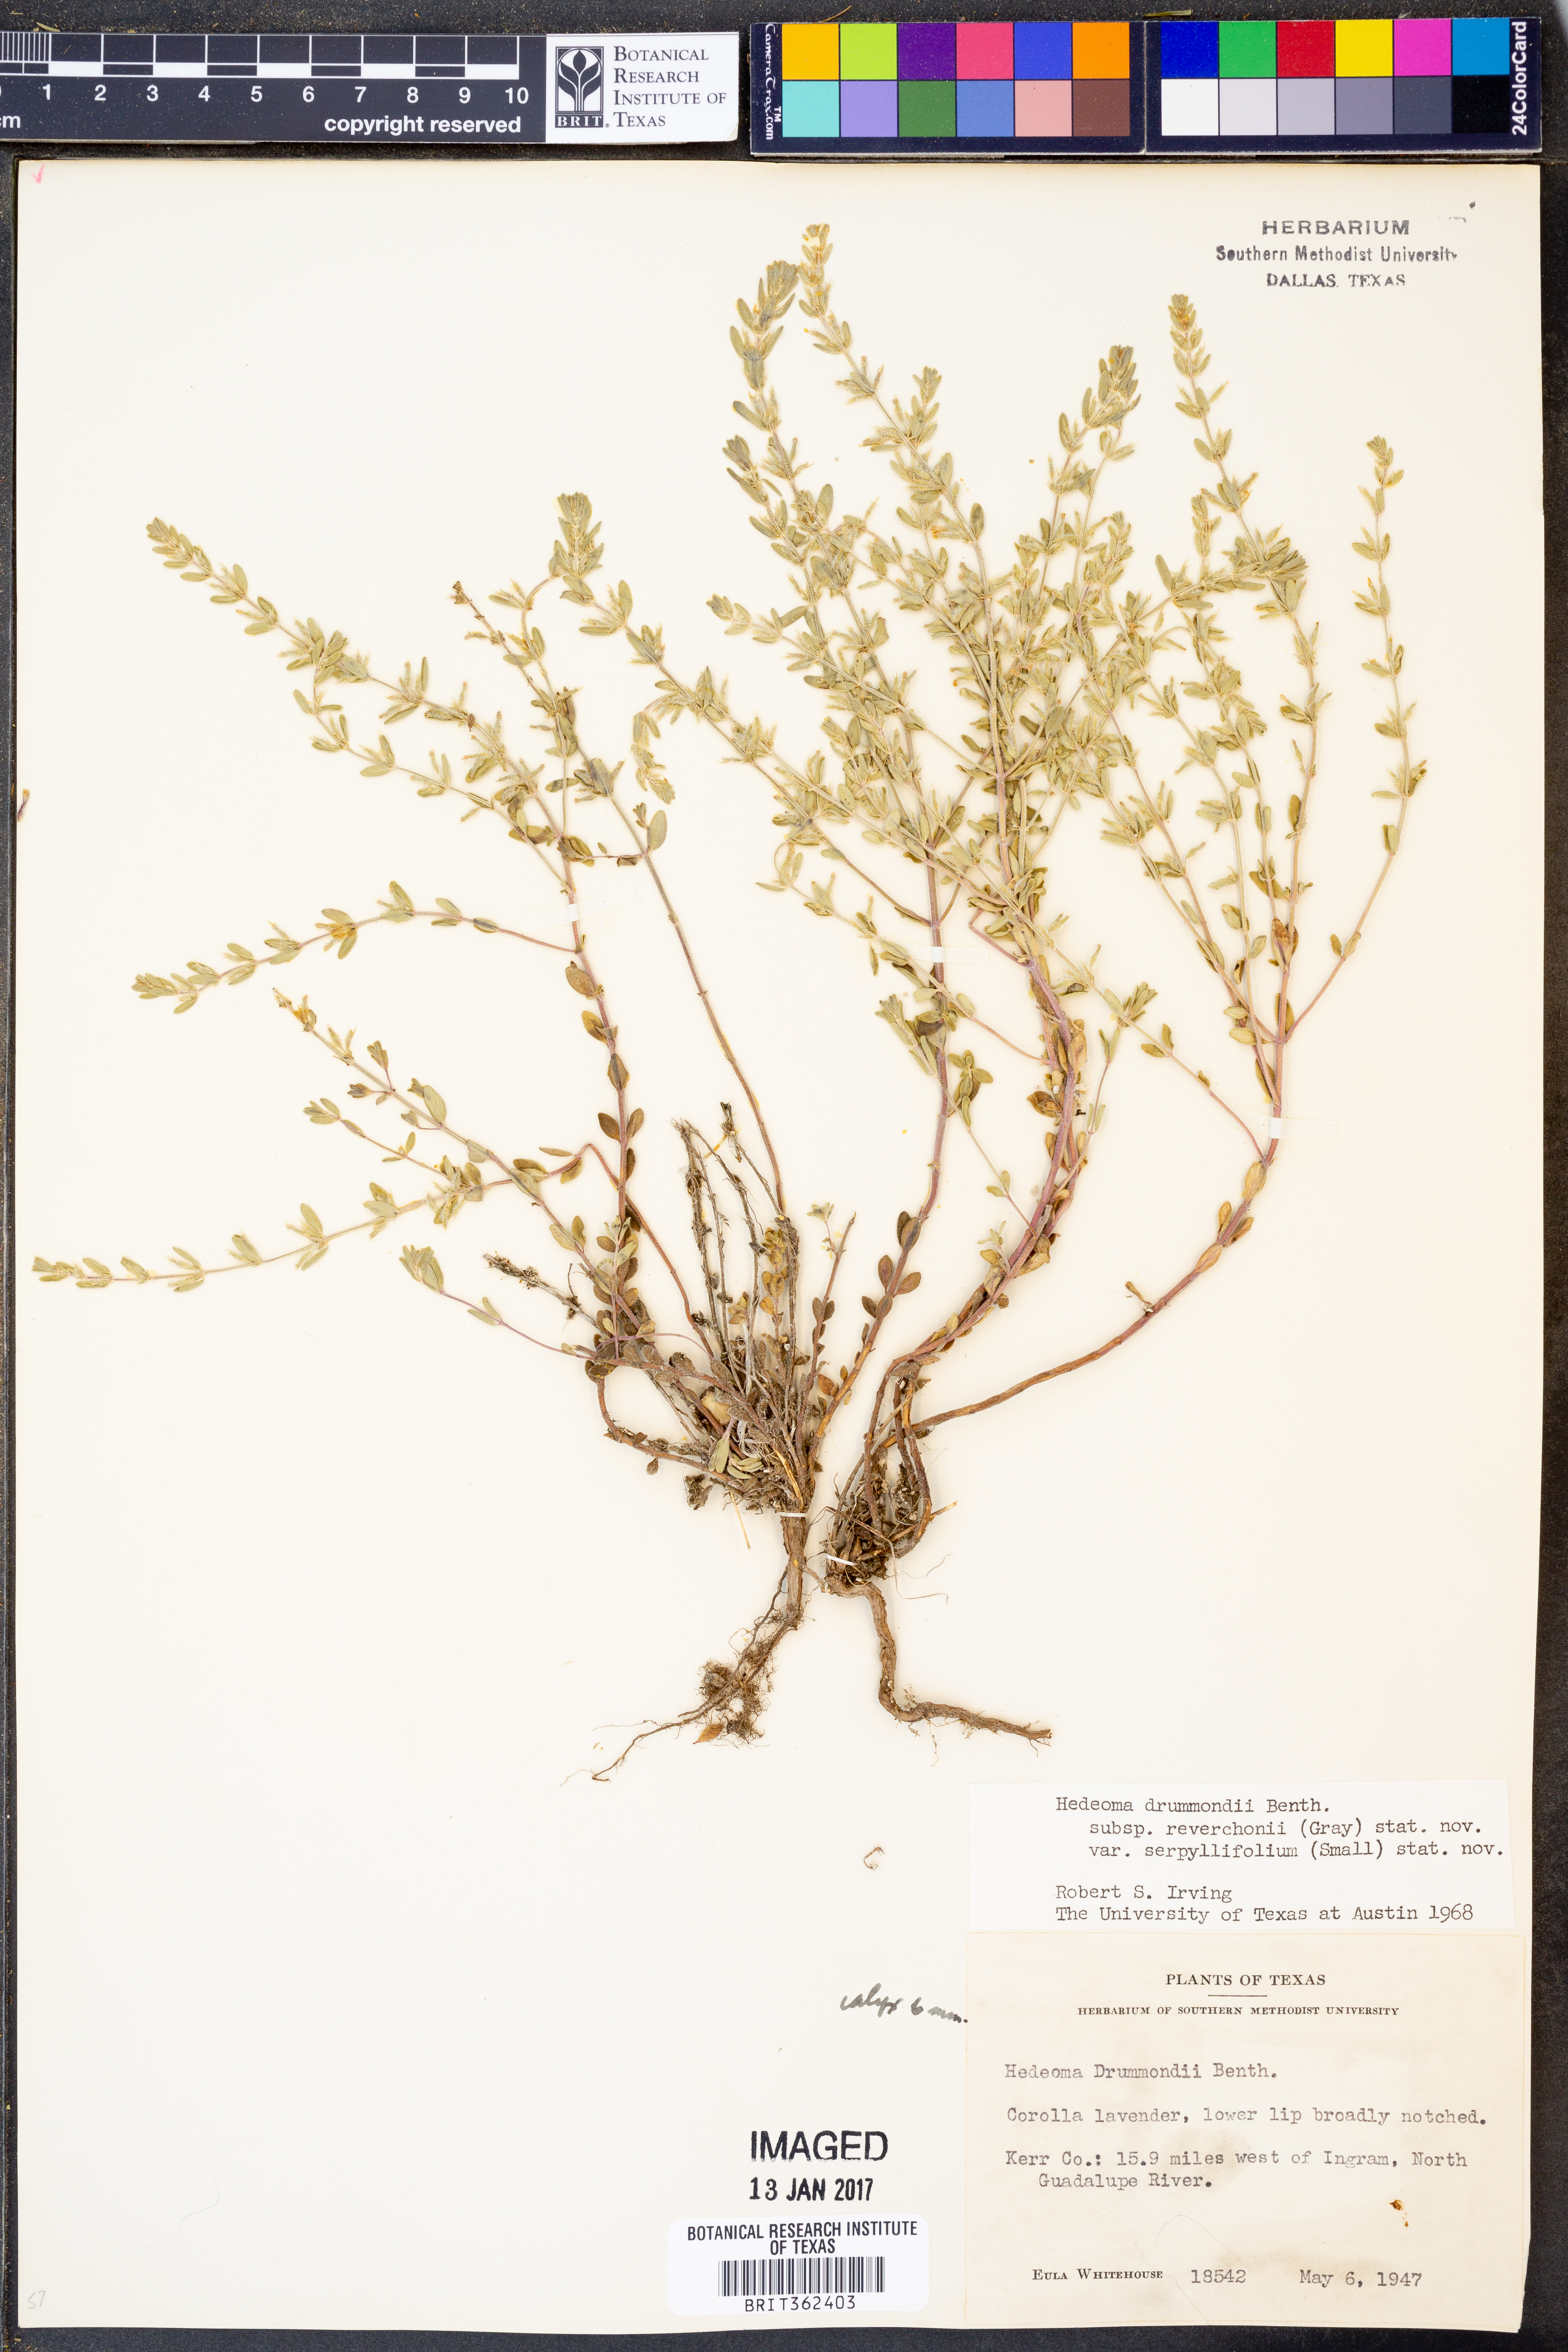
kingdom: Plantae
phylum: Tracheophyta
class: Magnoliopsida
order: Lamiales
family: Lamiaceae
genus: Hedeoma
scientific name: Hedeoma reverchonii
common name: Reverchon's false penny-royal
